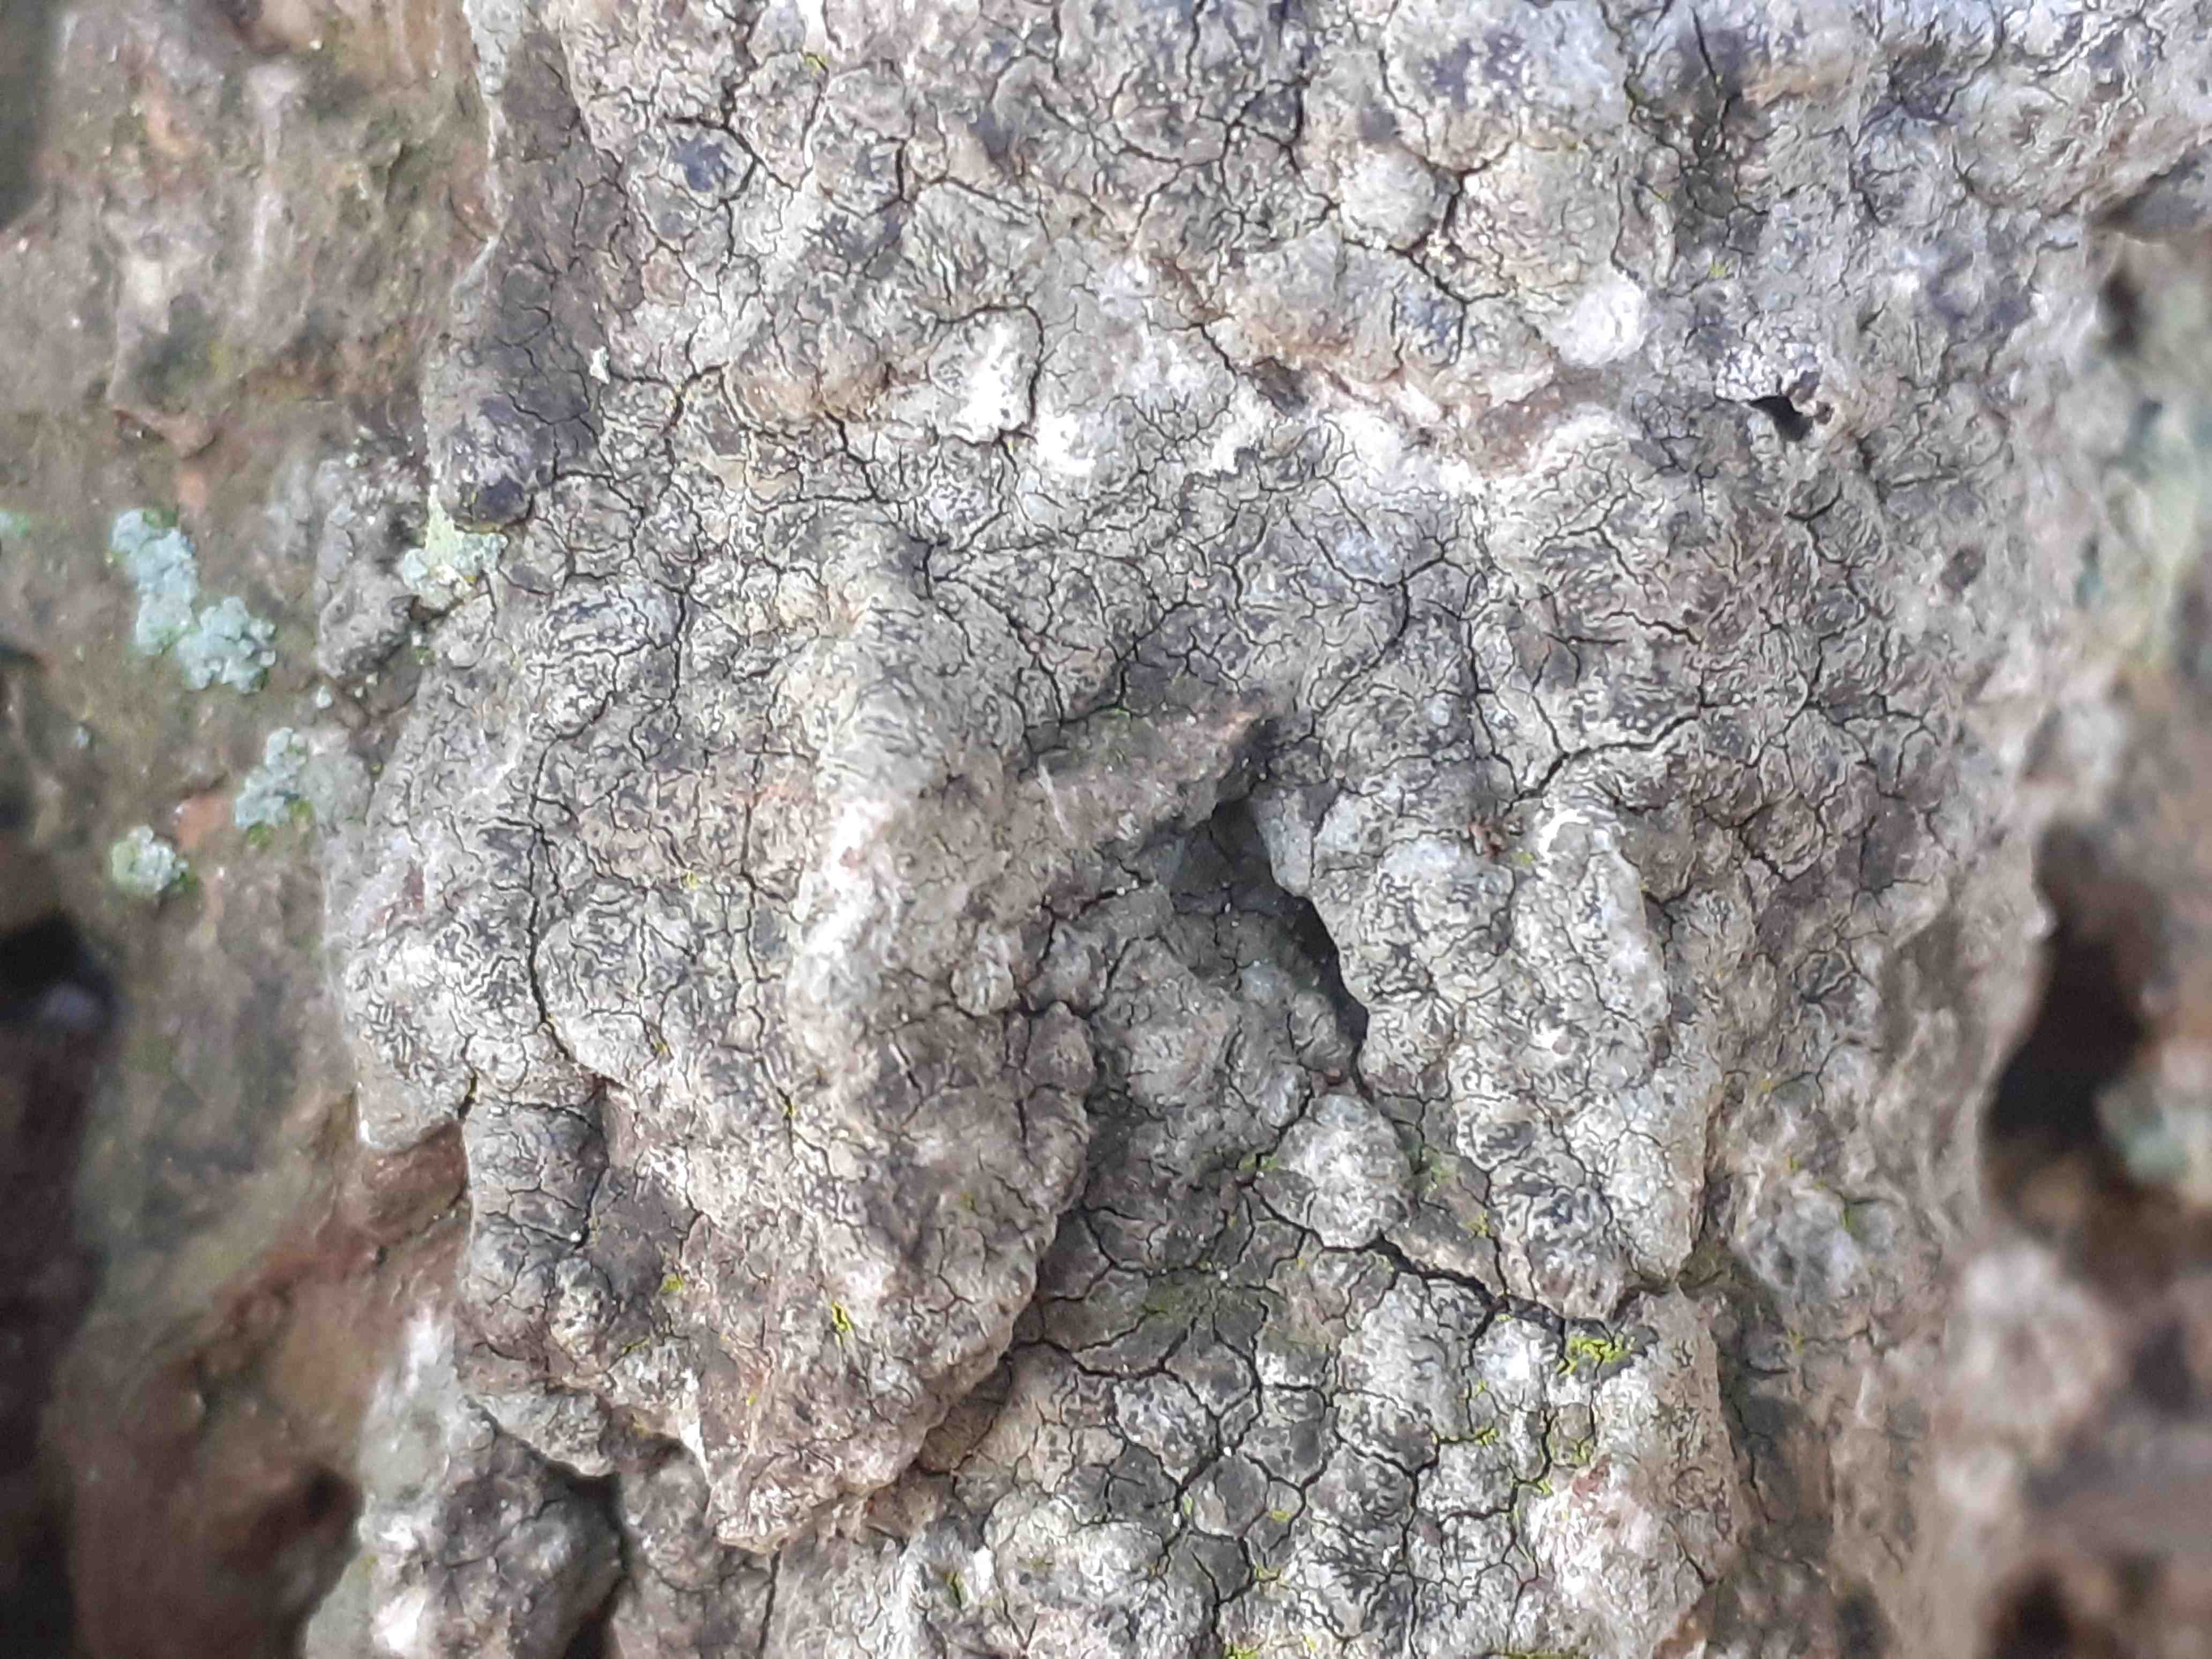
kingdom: Fungi
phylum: Ascomycota
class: Arthoniomycetes
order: Arthoniales
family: Roccellaceae
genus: Enterographa
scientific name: Enterographa crassa
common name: tyk prægelav
